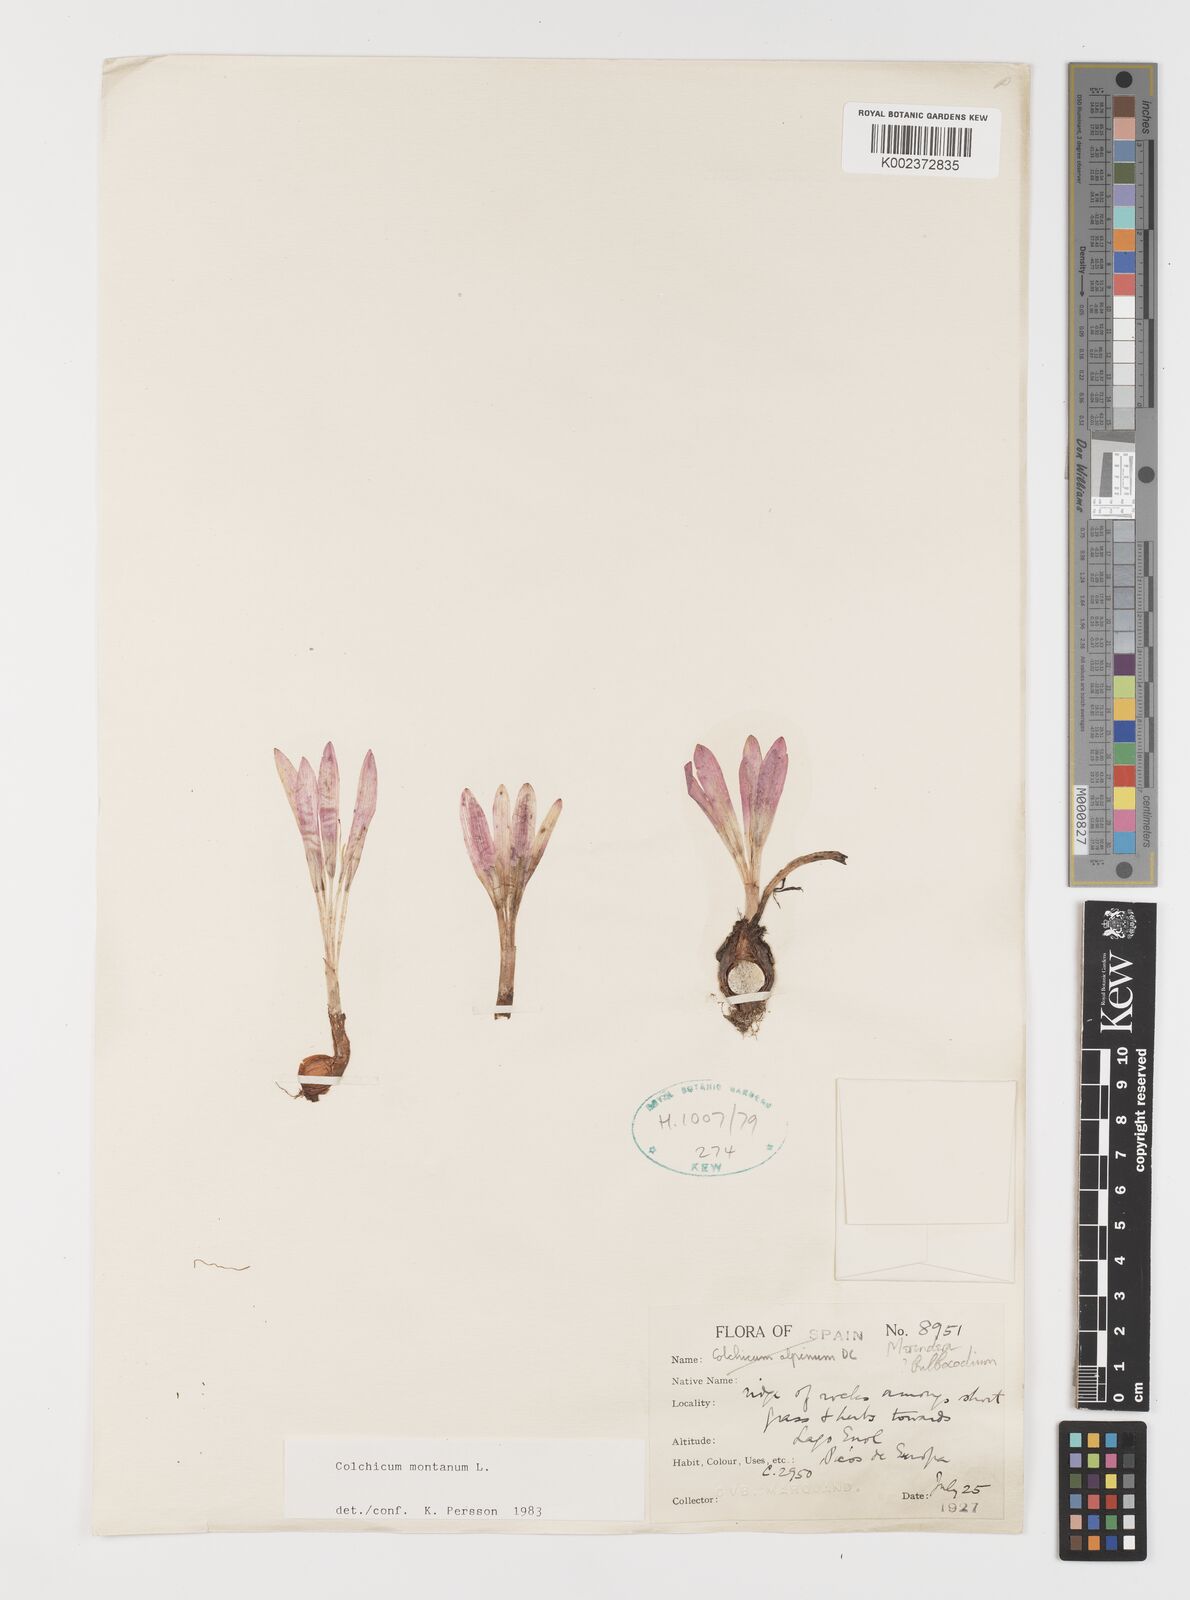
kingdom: Plantae
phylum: Tracheophyta
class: Liliopsida
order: Liliales
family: Colchicaceae
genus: Colchicum
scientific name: Colchicum montanum
